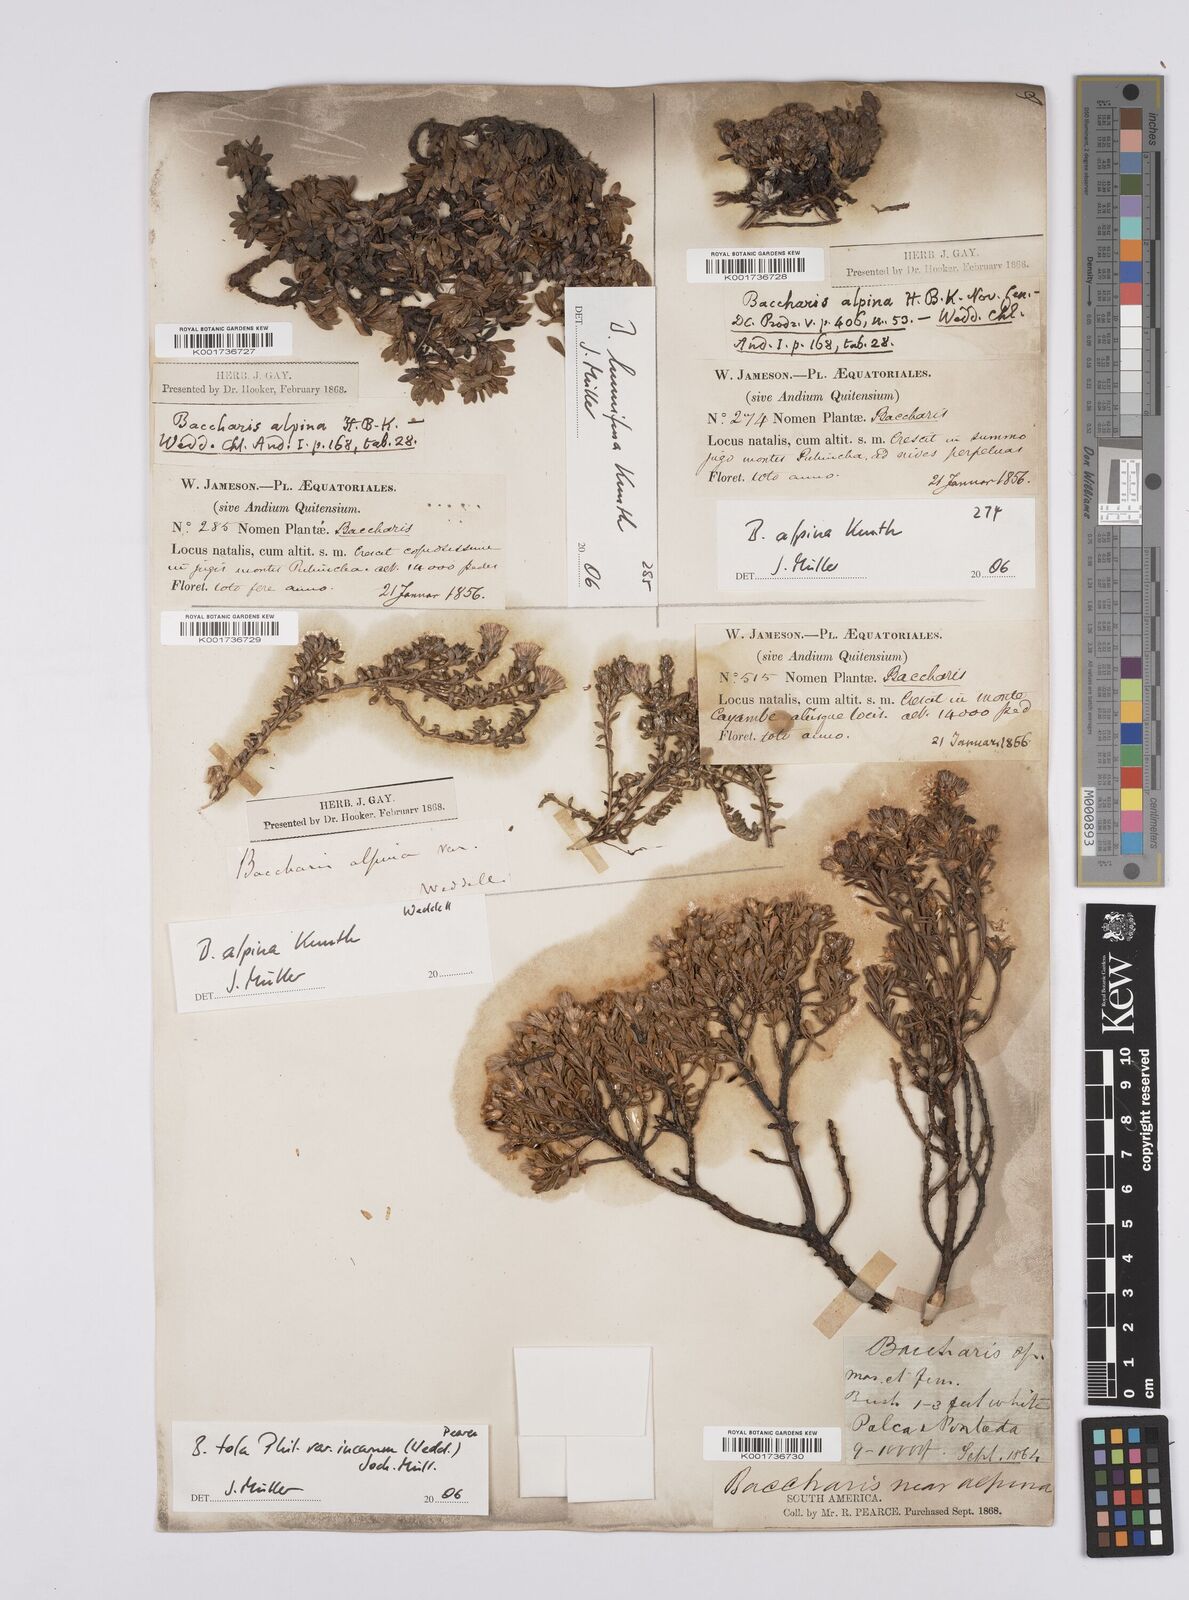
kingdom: Plantae
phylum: Tracheophyta
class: Magnoliopsida
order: Asterales
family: Asteraceae
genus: Baccharis
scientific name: Baccharis alpina
